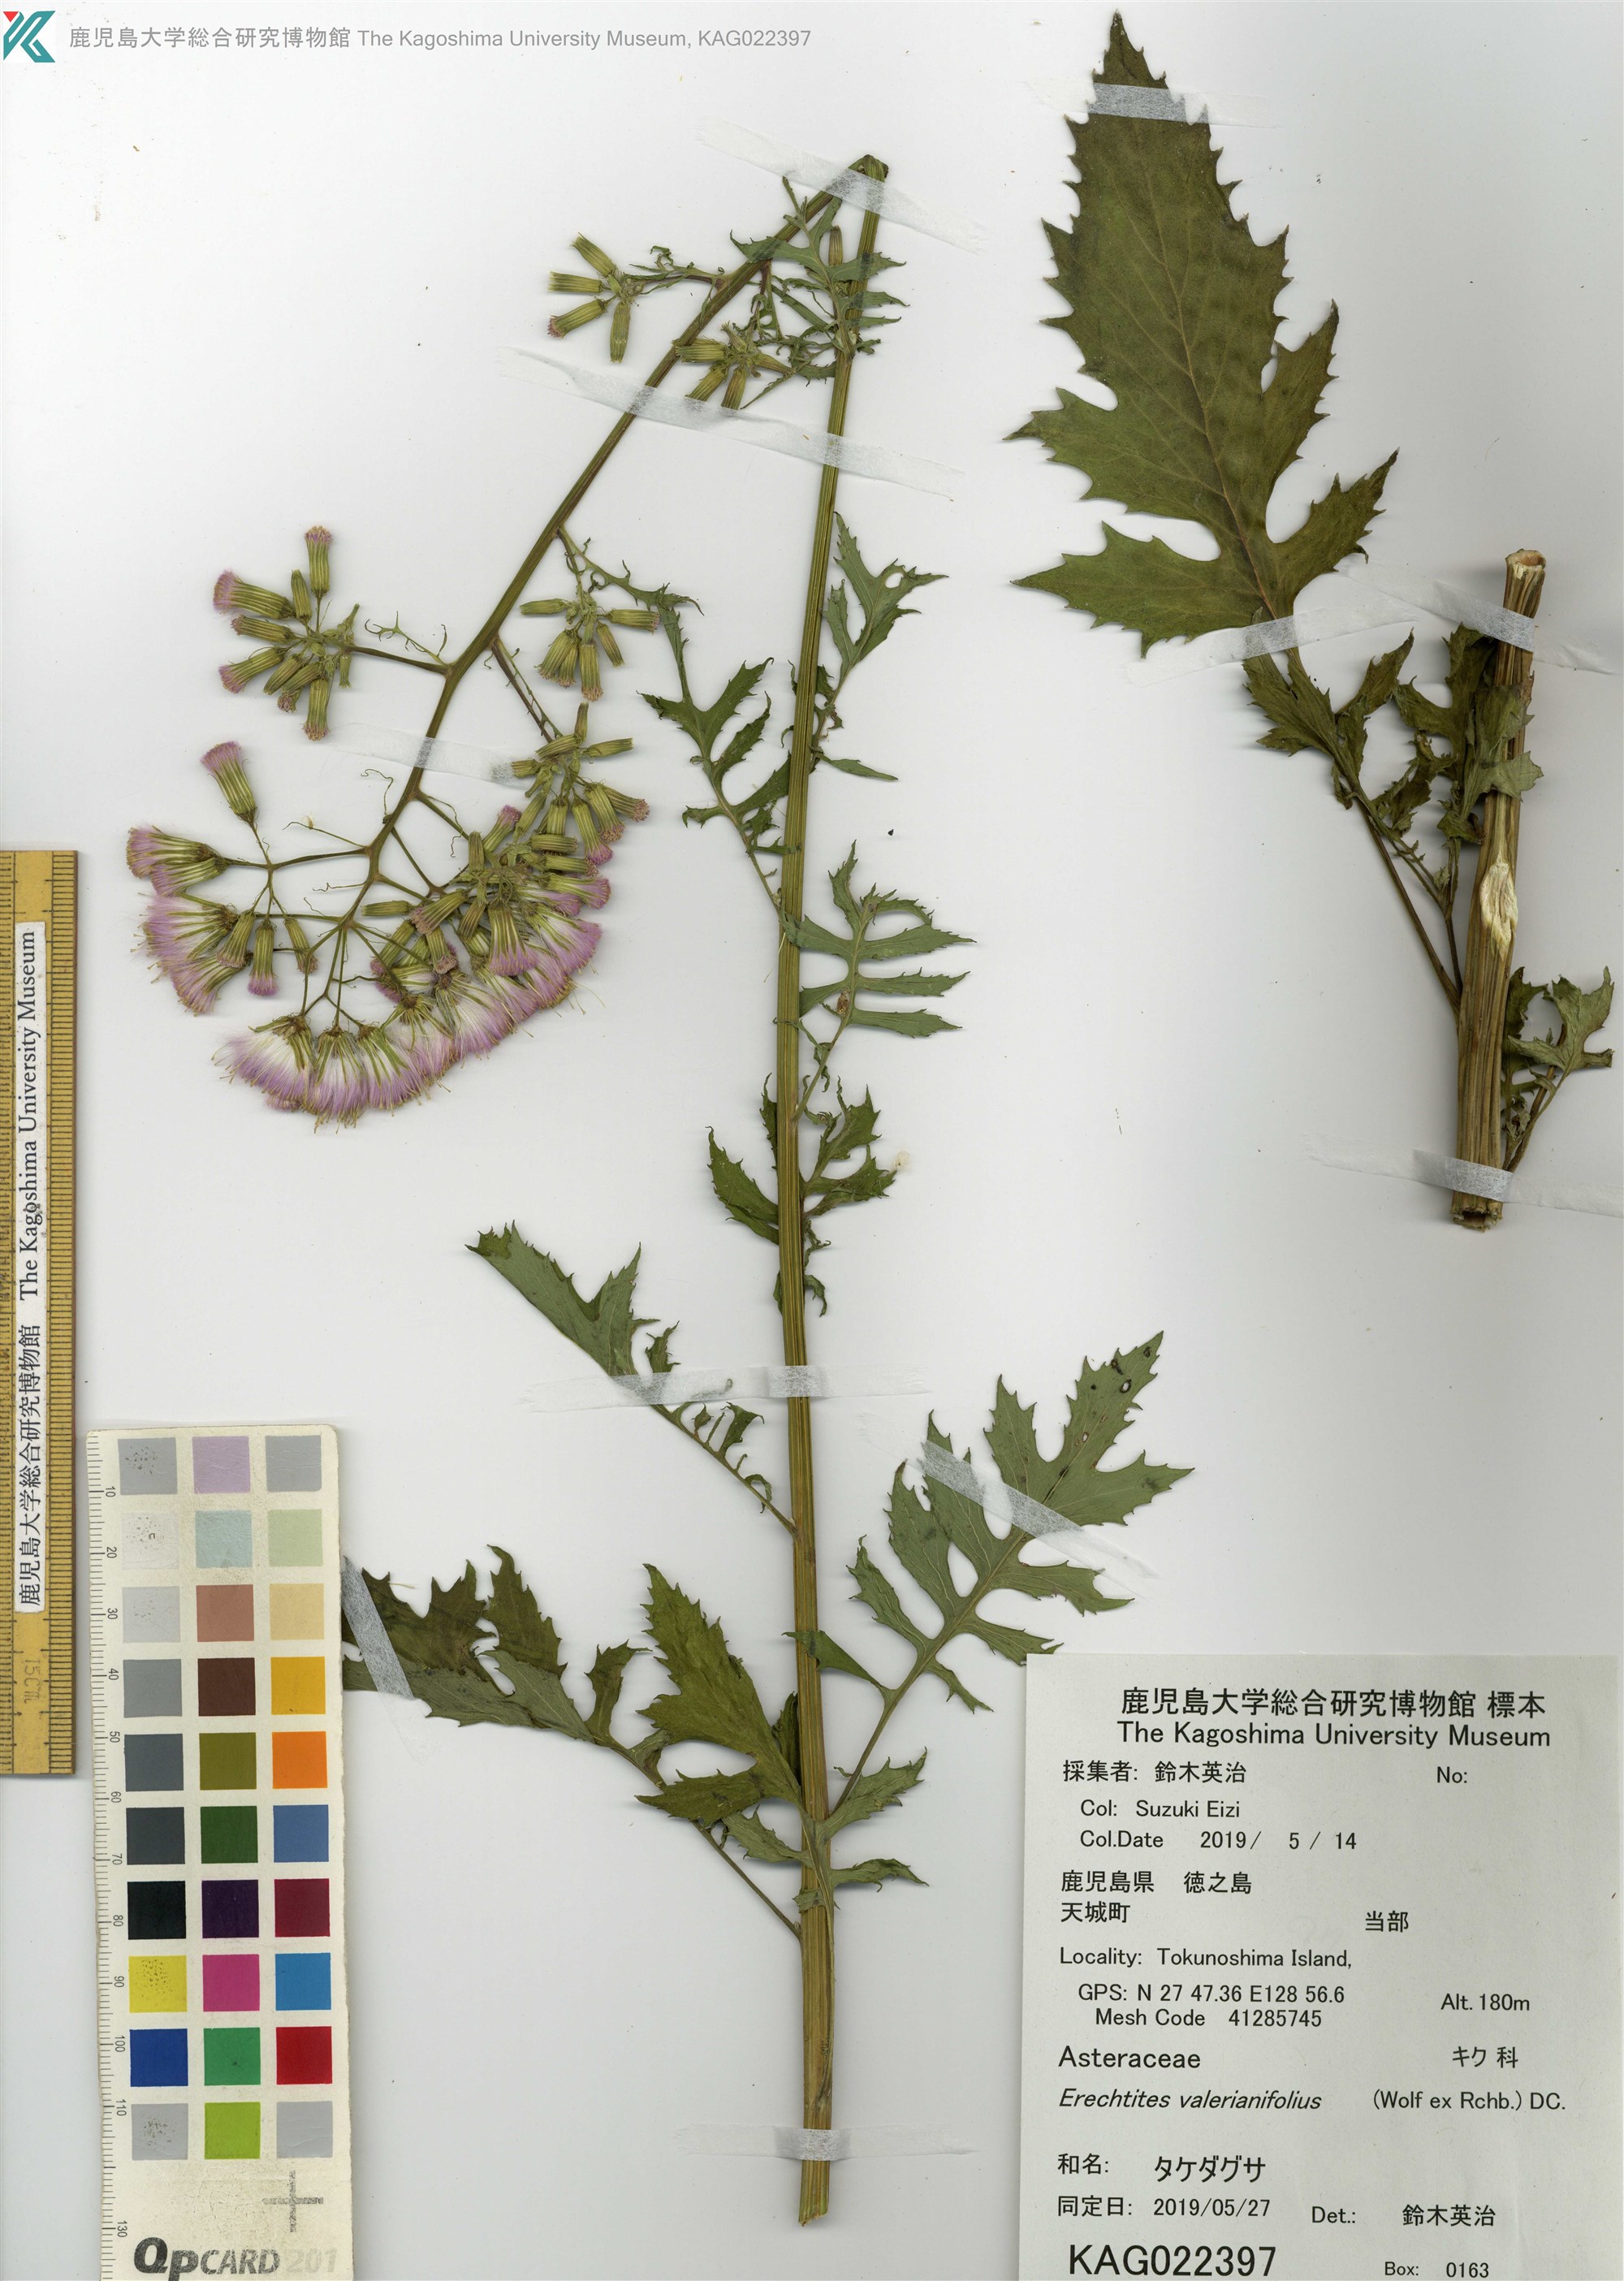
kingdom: Plantae
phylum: Tracheophyta
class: Magnoliopsida
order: Asterales
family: Asteraceae
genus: Erechtites
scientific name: Erechtites valerianifolius
